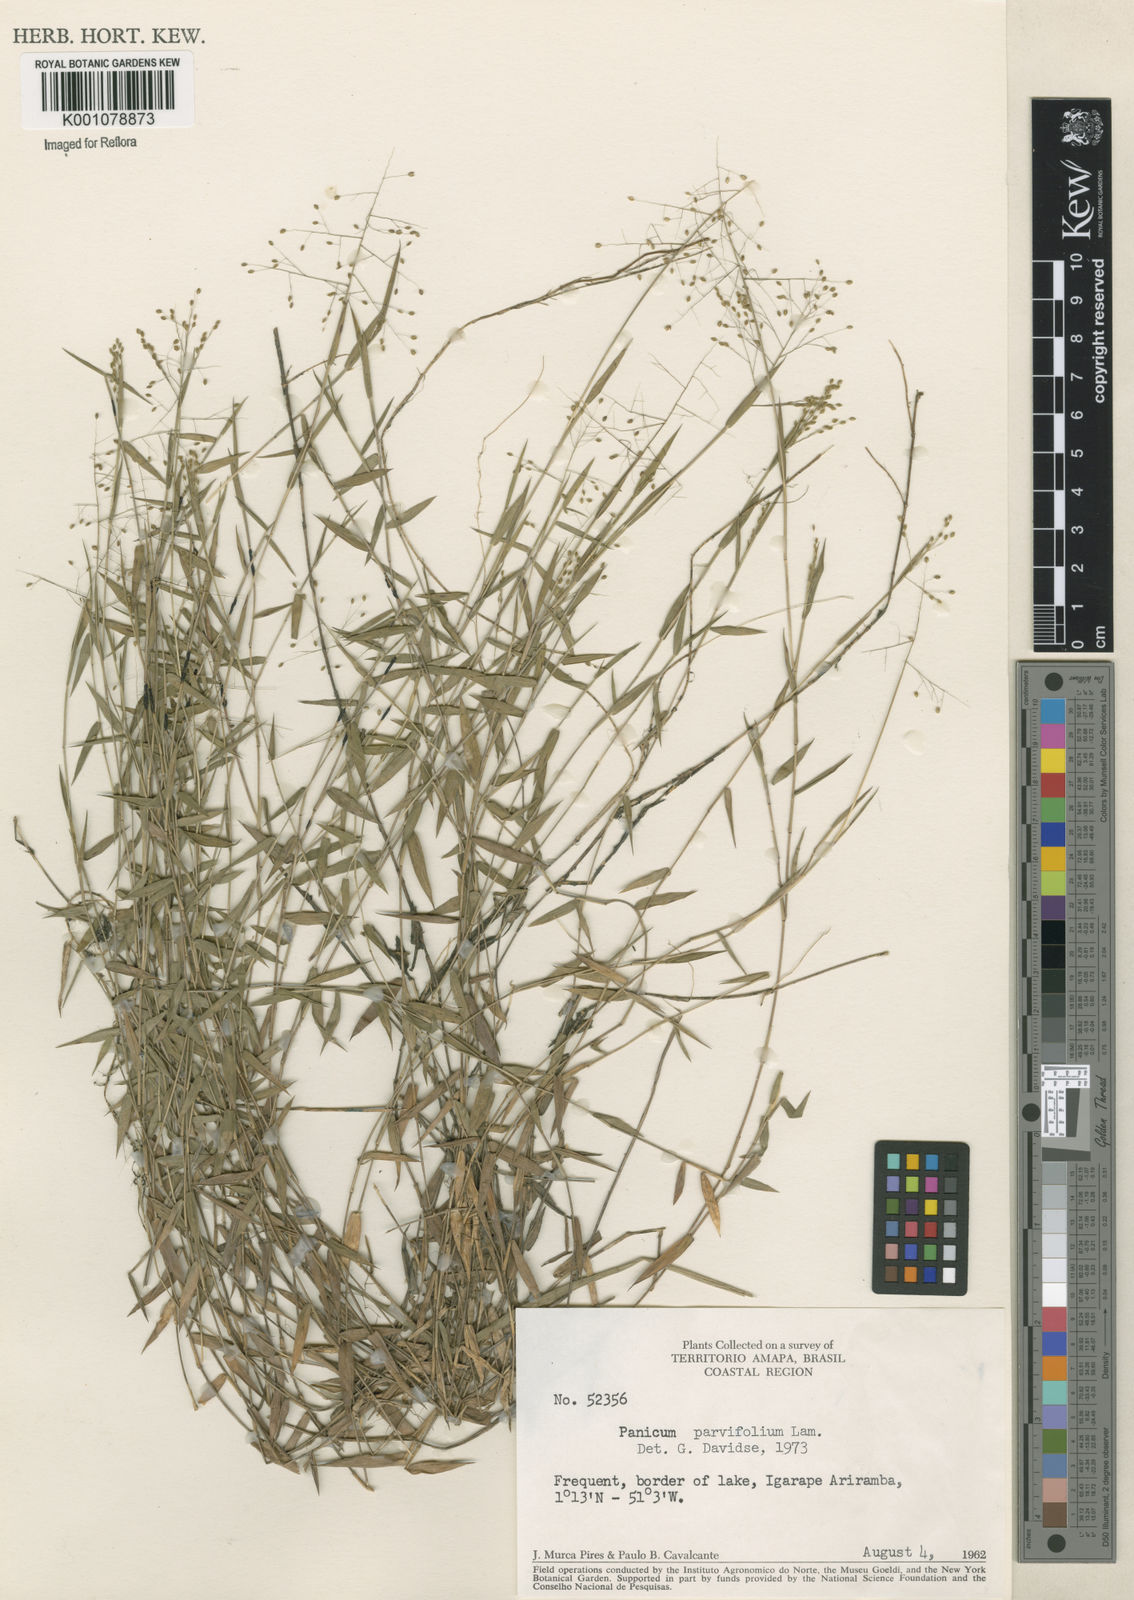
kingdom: Plantae
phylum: Tracheophyta
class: Liliopsida
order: Poales
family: Poaceae
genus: Trichanthecium
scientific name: Trichanthecium parvifolium
